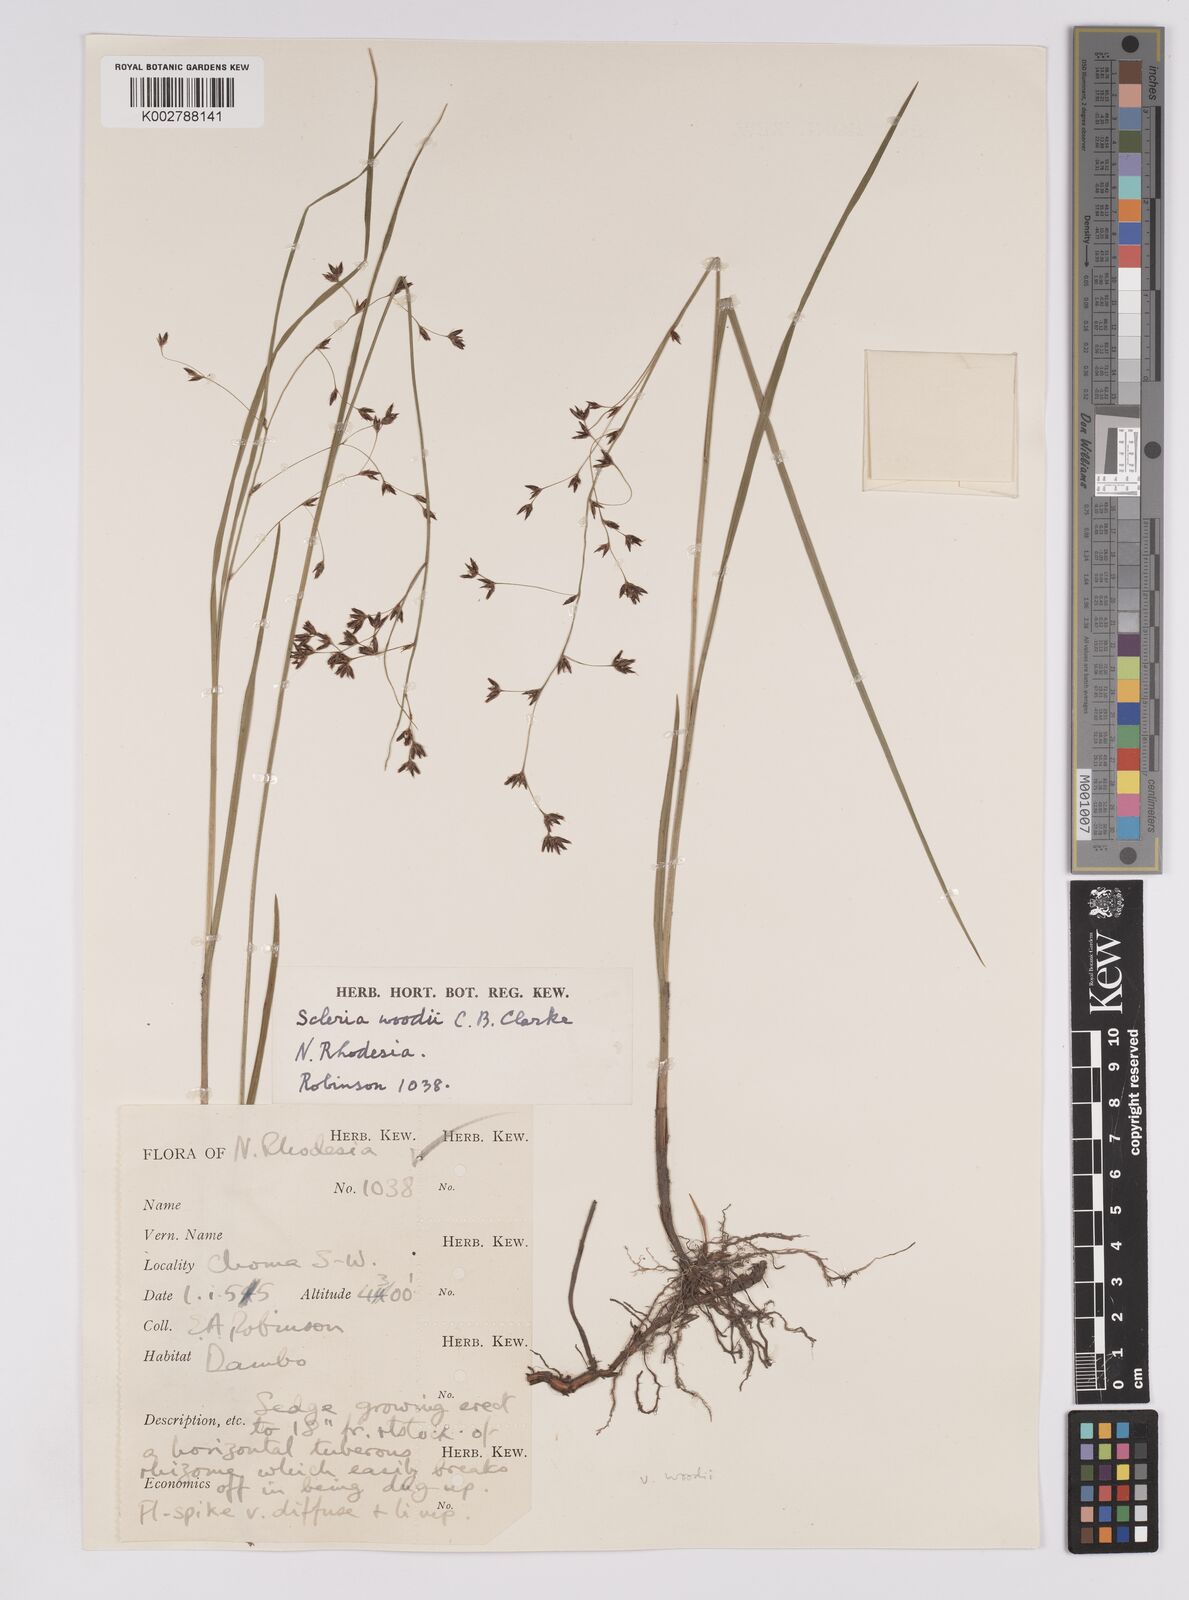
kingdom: Plantae
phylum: Tracheophyta
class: Liliopsida
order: Poales
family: Cyperaceae
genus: Scleria
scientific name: Scleria woodii
